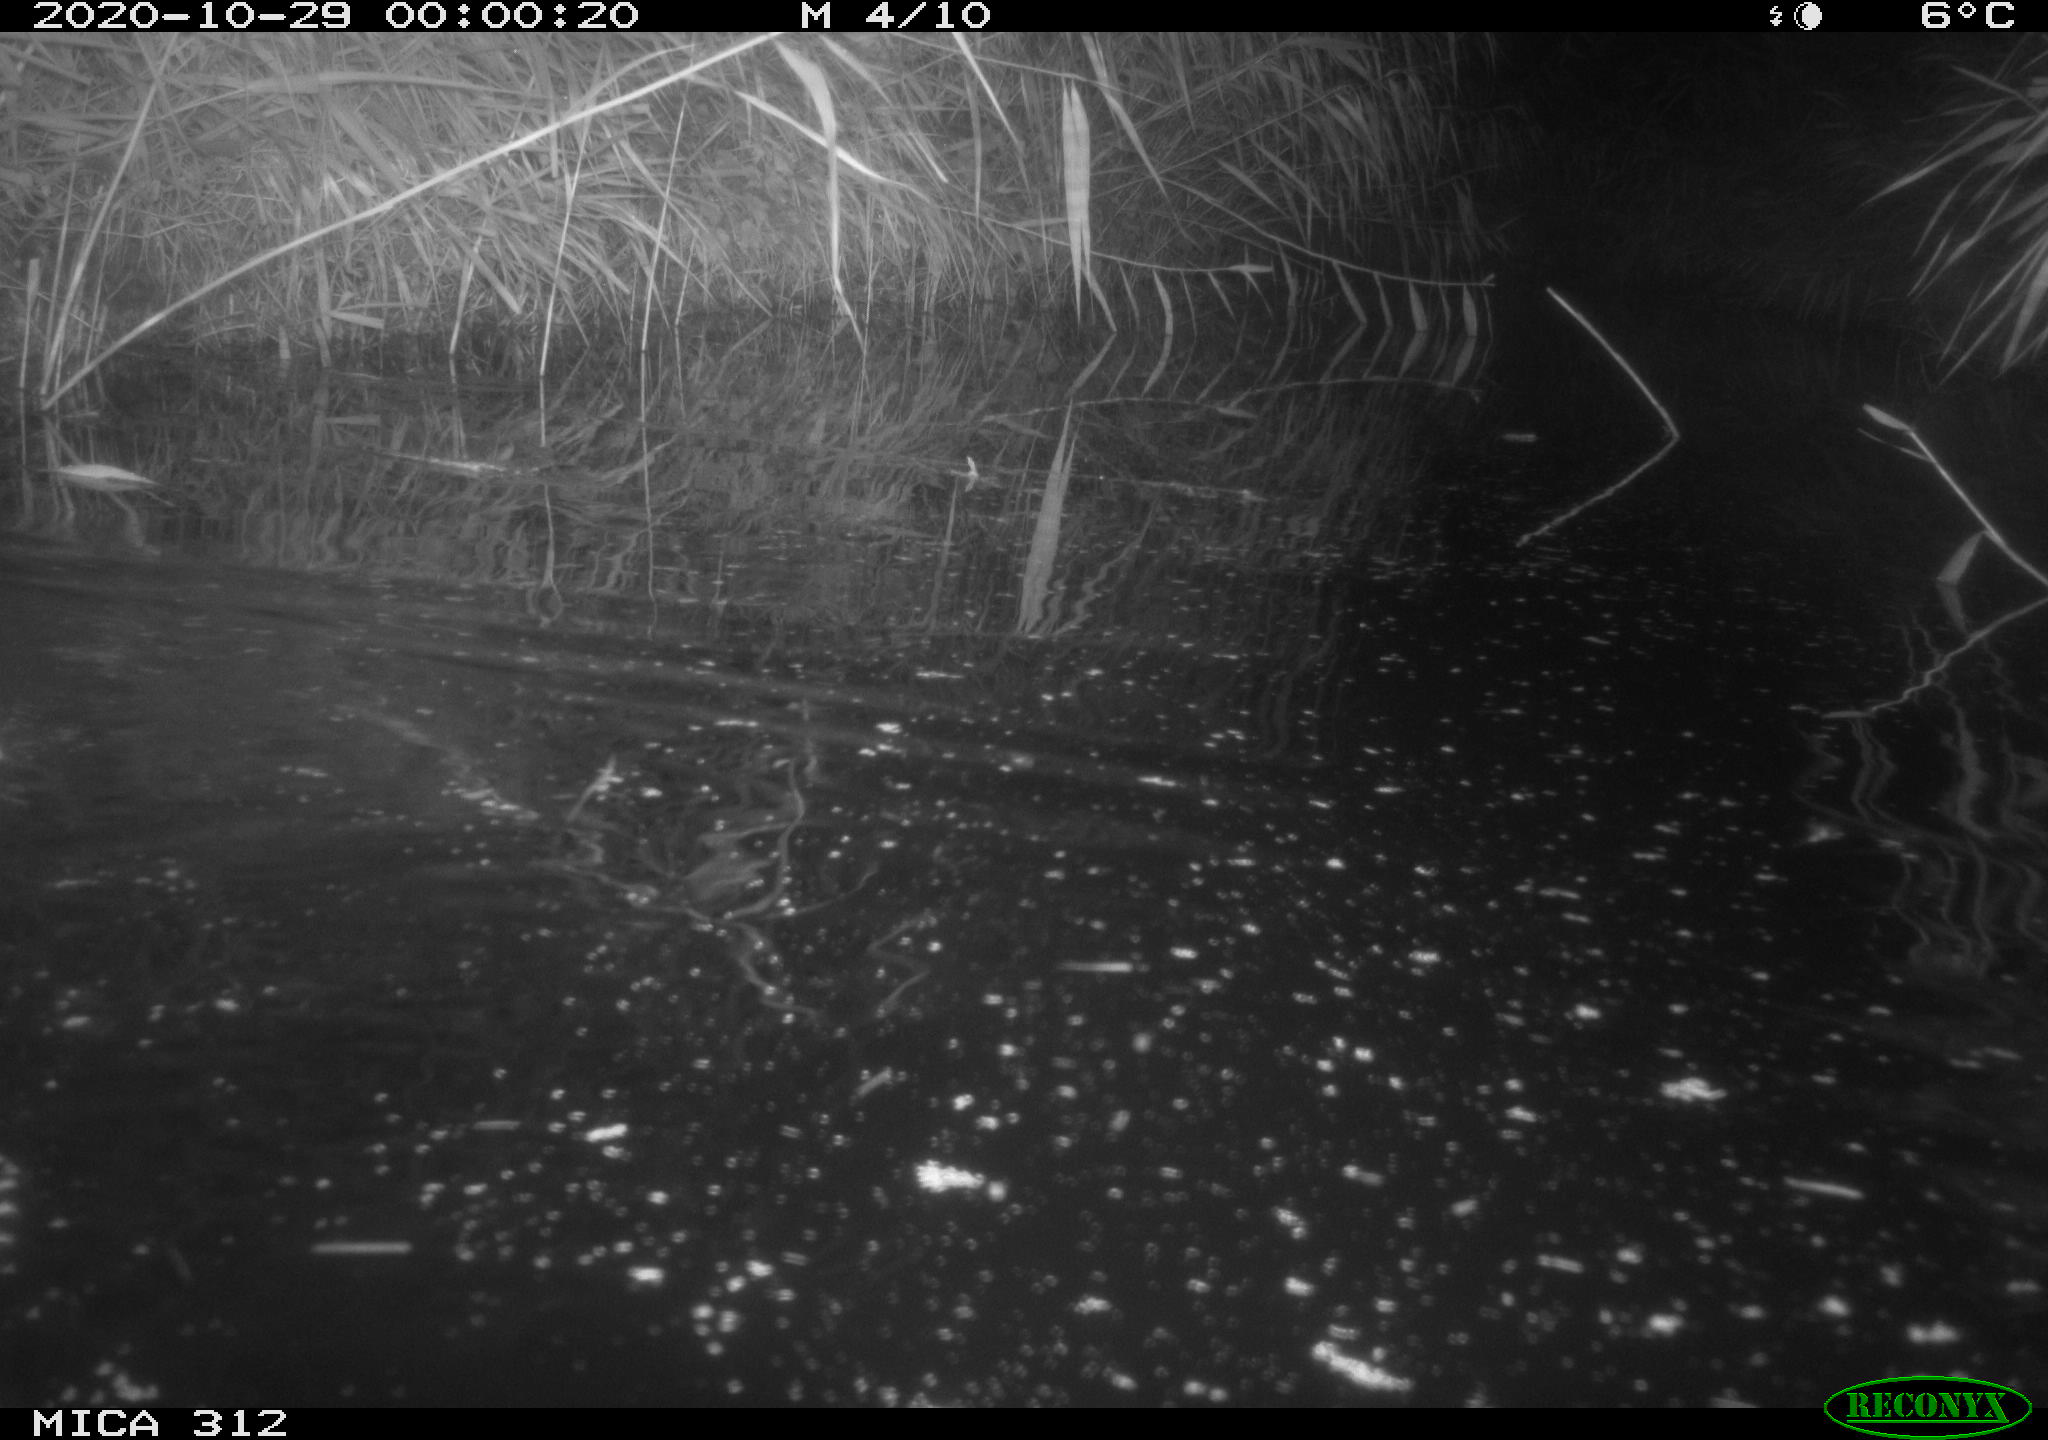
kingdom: Animalia
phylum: Chordata
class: Mammalia
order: Rodentia
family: Muridae
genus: Rattus
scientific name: Rattus norvegicus
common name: Brown rat
